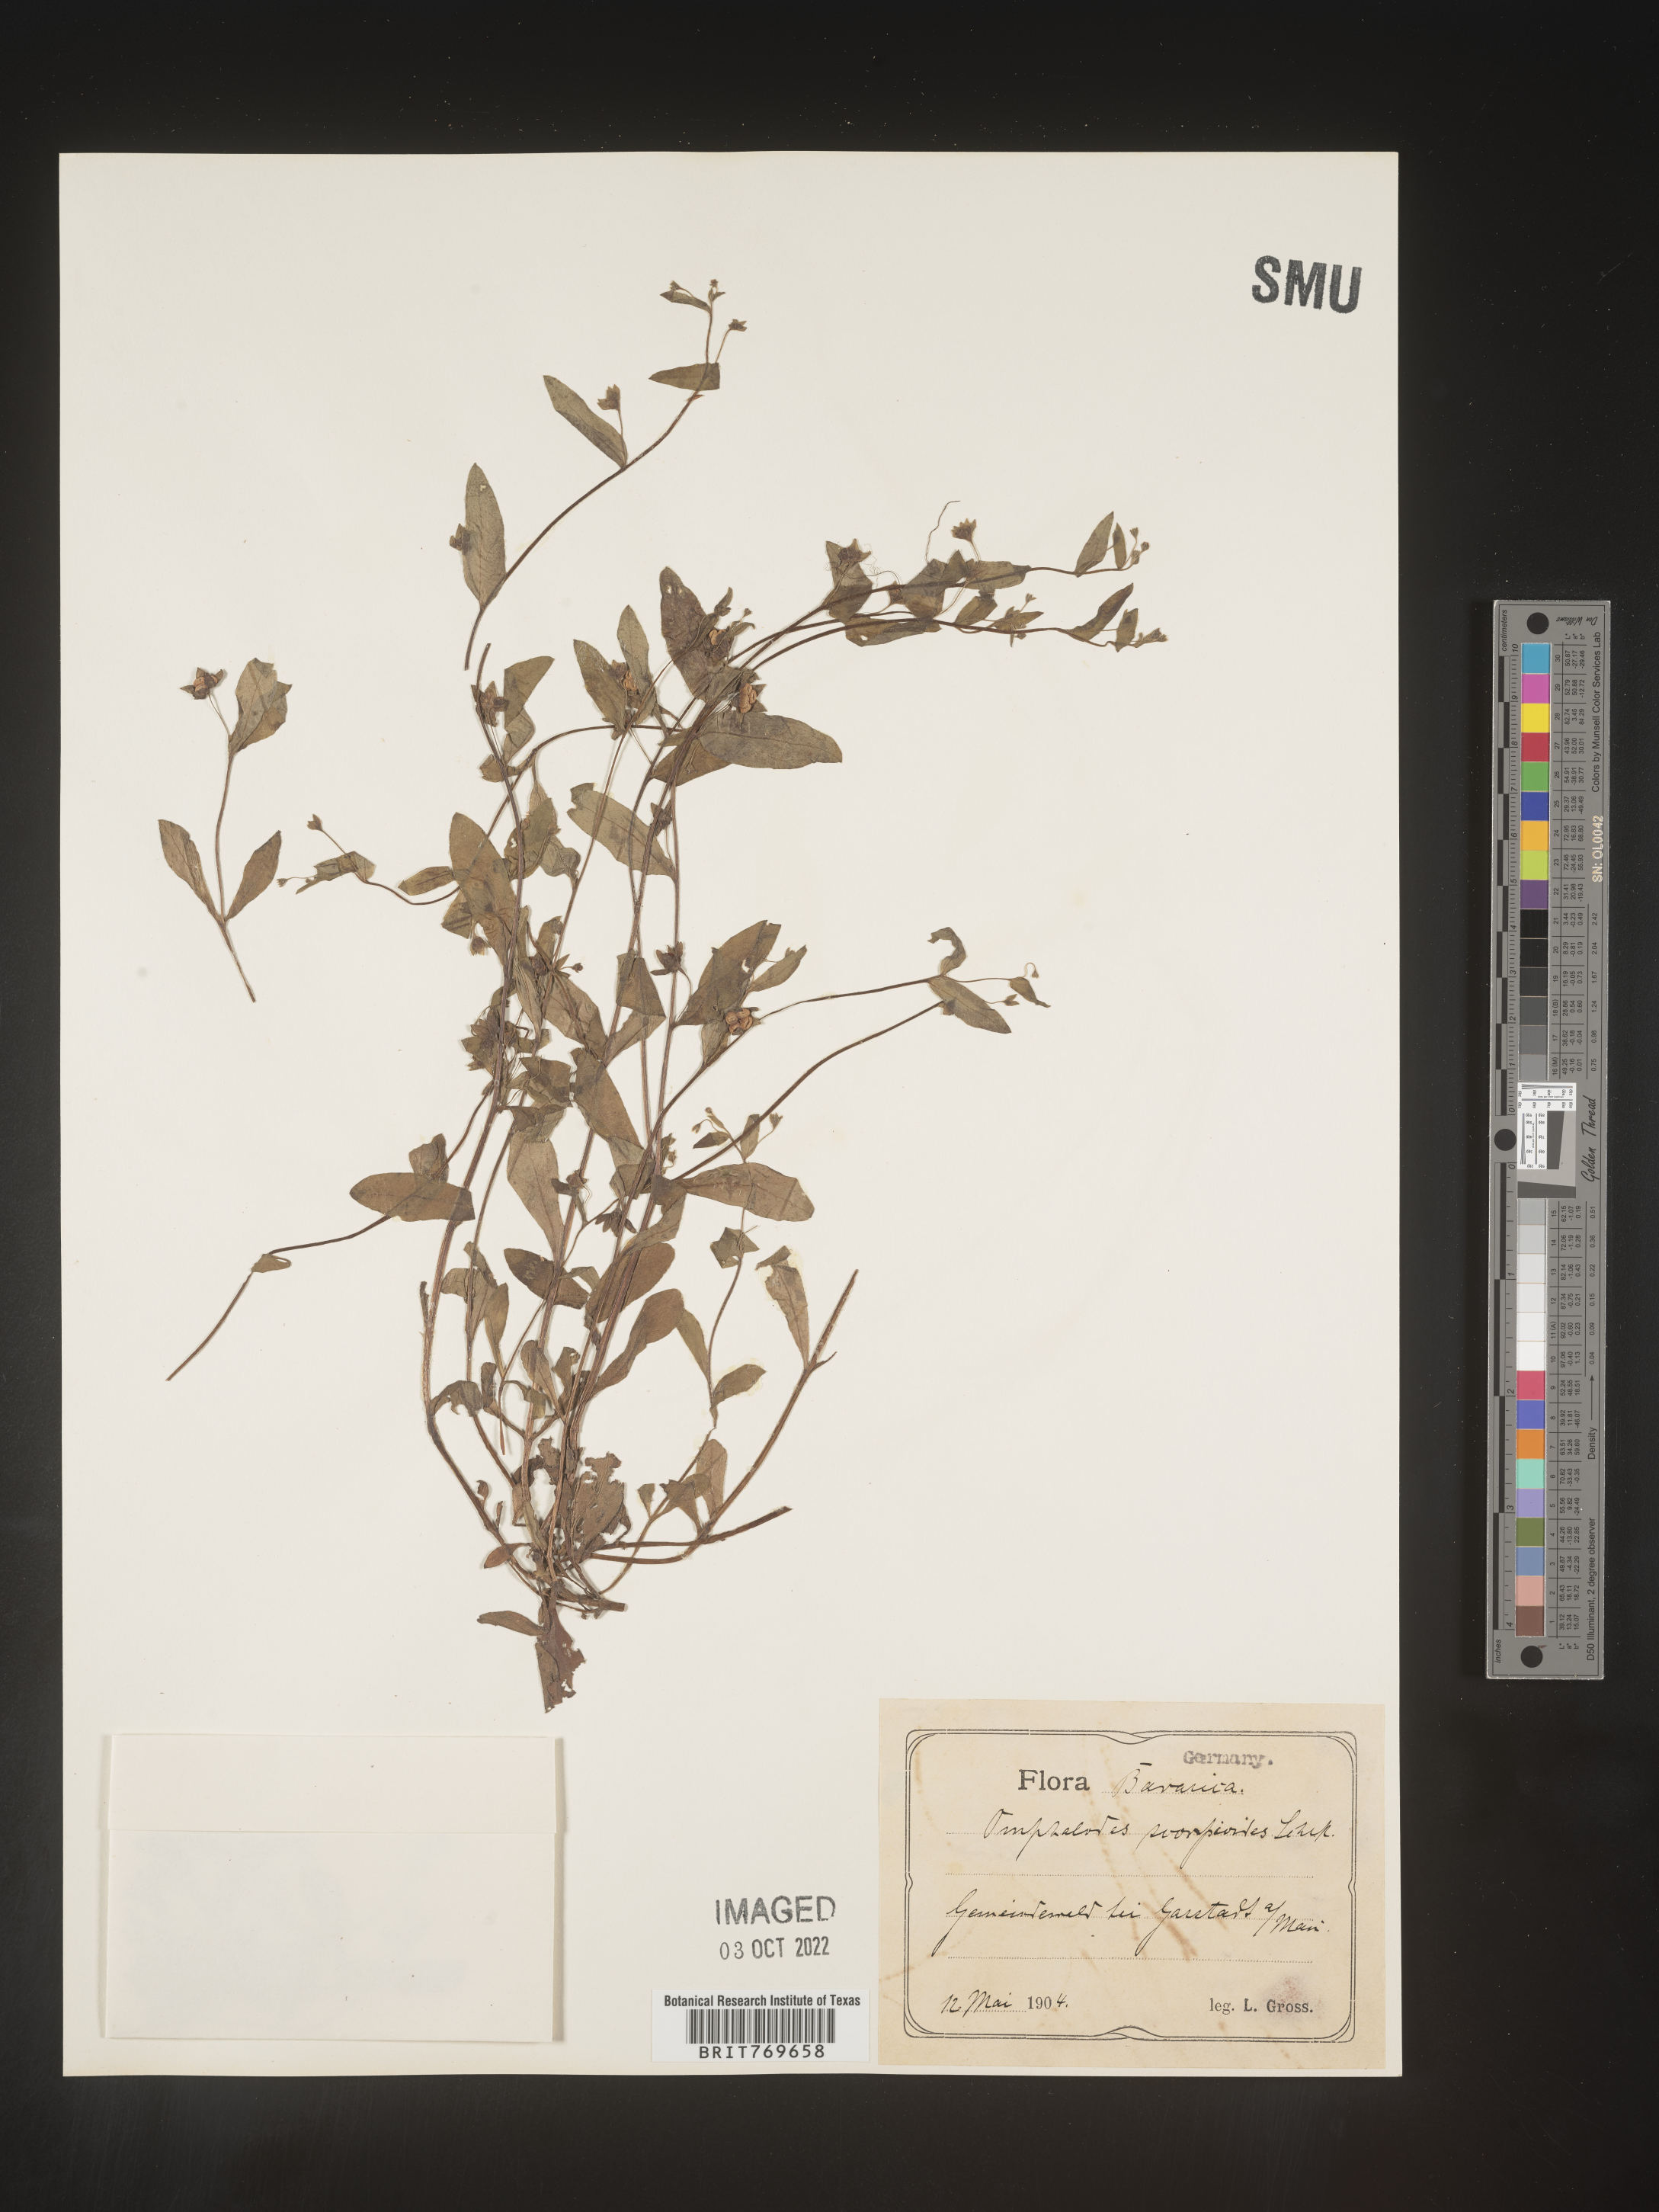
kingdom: Plantae
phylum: Tracheophyta
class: Magnoliopsida
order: Boraginales
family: Boraginaceae
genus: Omphalodes
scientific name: Omphalodes
